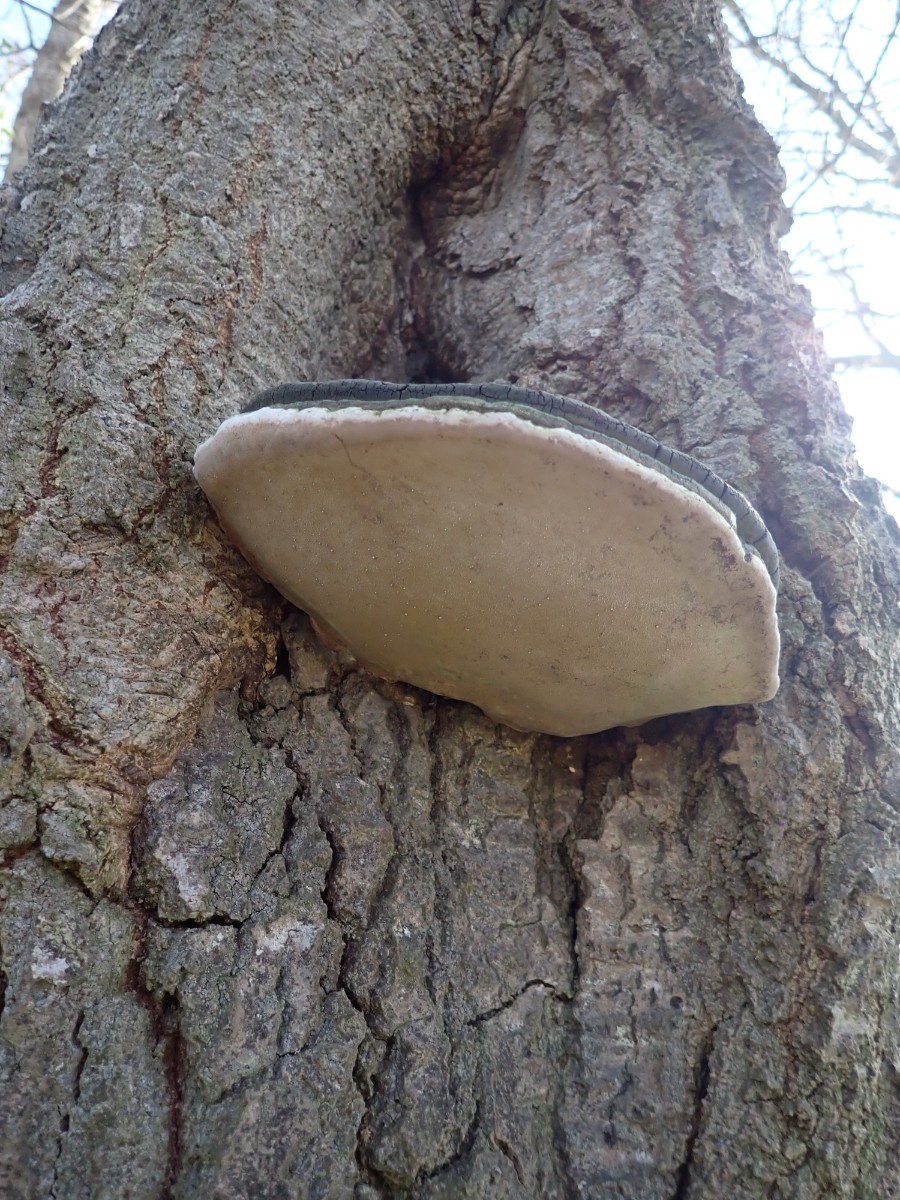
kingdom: Fungi
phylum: Basidiomycota
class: Agaricomycetes
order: Hymenochaetales
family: Hymenochaetaceae
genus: Phellinus
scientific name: Phellinus populicola
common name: poppel-ildporesvamp
